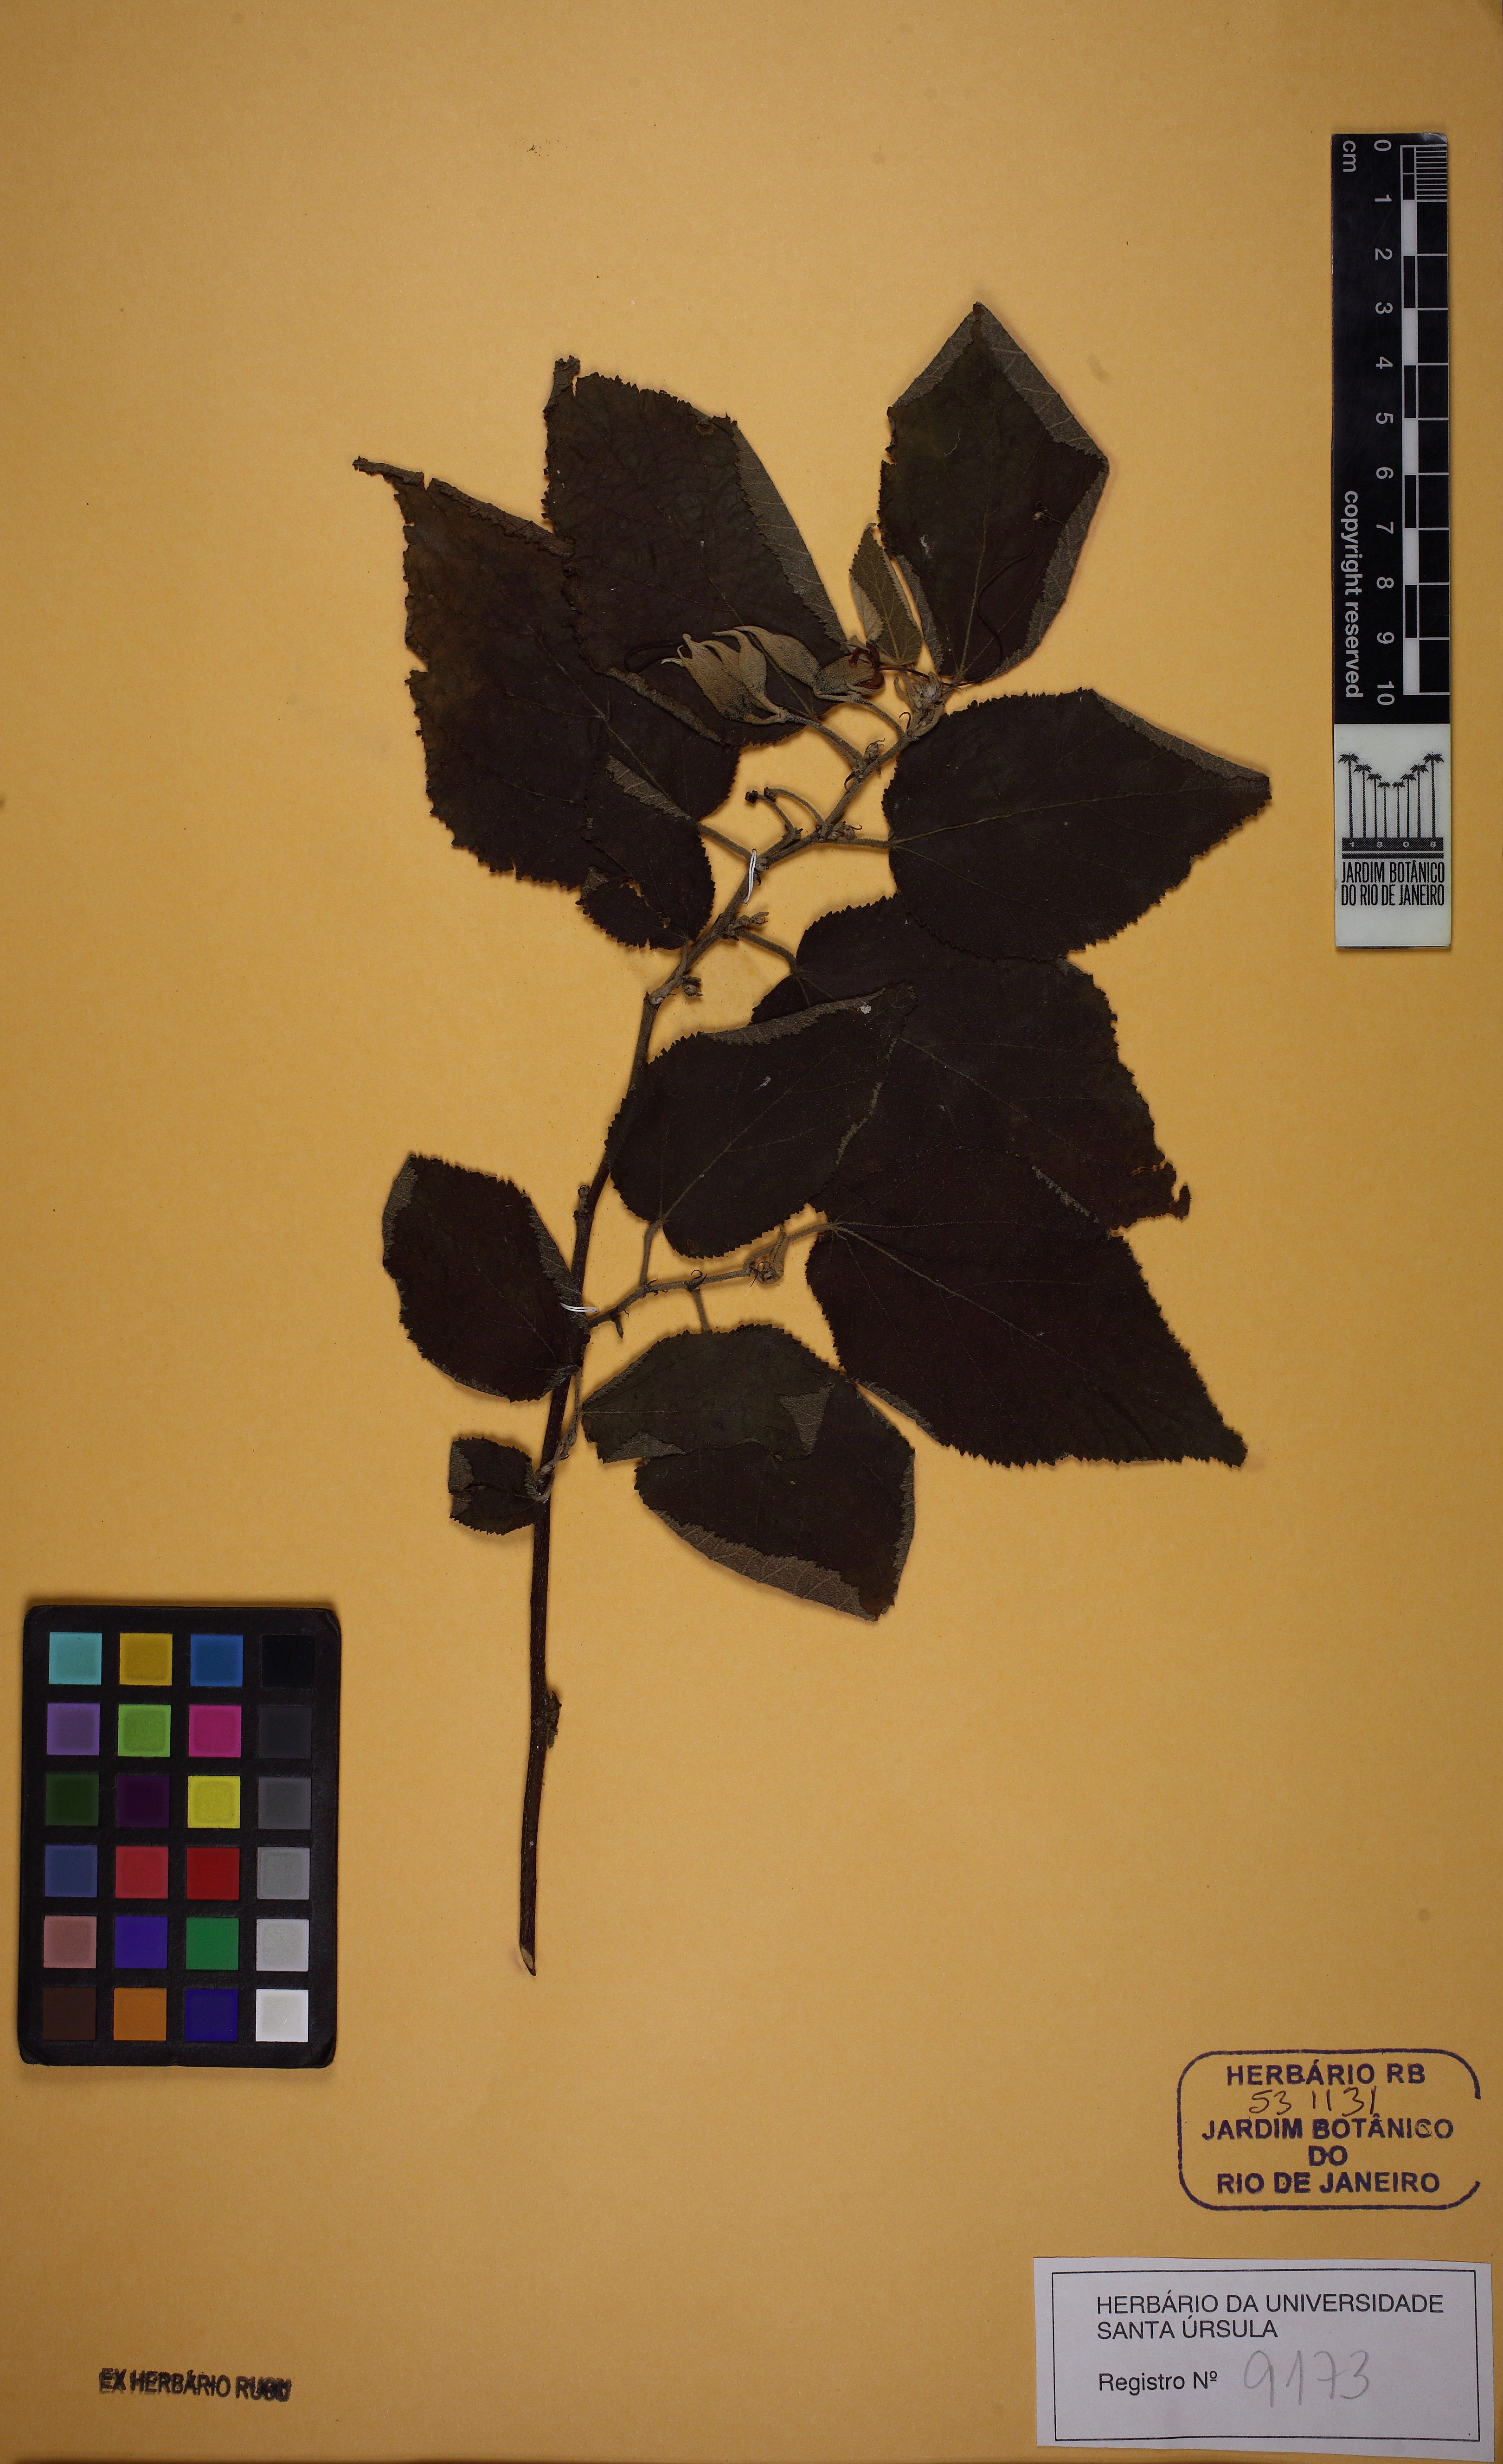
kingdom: Plantae
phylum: Tracheophyta
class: Magnoliopsida
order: Malvales
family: Malvaceae
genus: Helicteres
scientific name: Helicteres ovata
